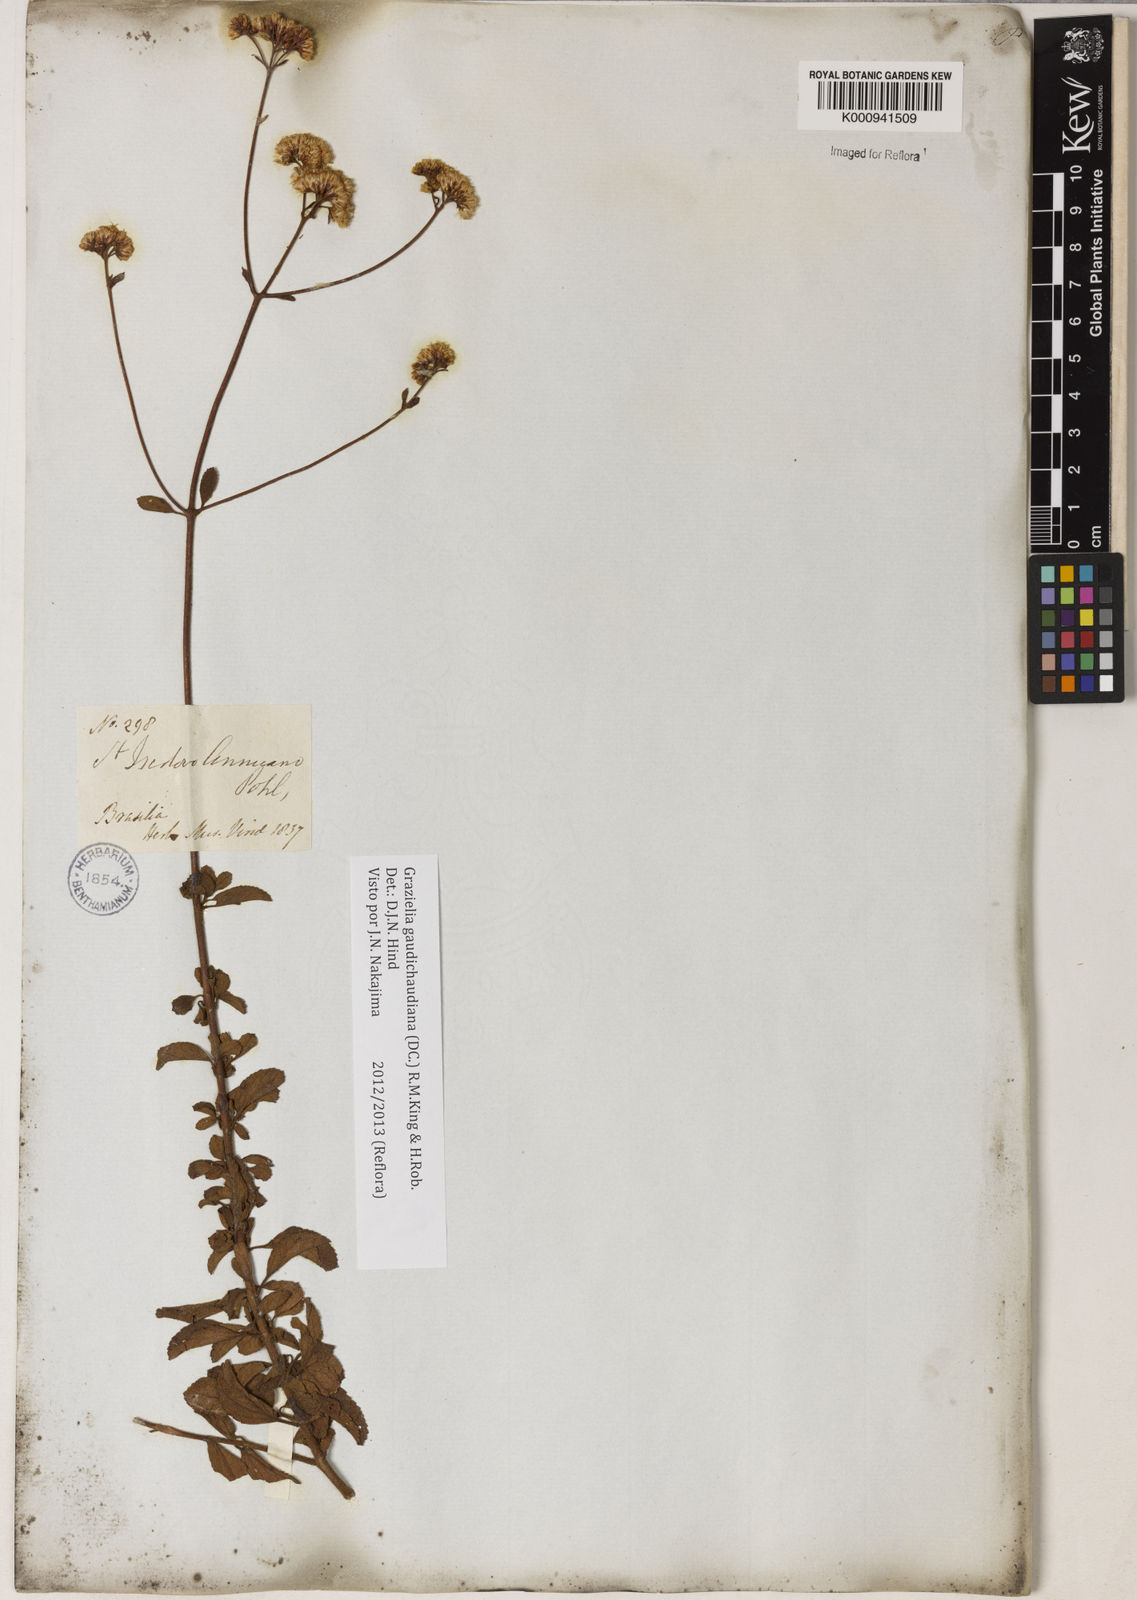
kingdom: Plantae
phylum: Tracheophyta
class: Magnoliopsida
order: Asterales
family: Asteraceae
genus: Grazielia
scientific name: Grazielia
